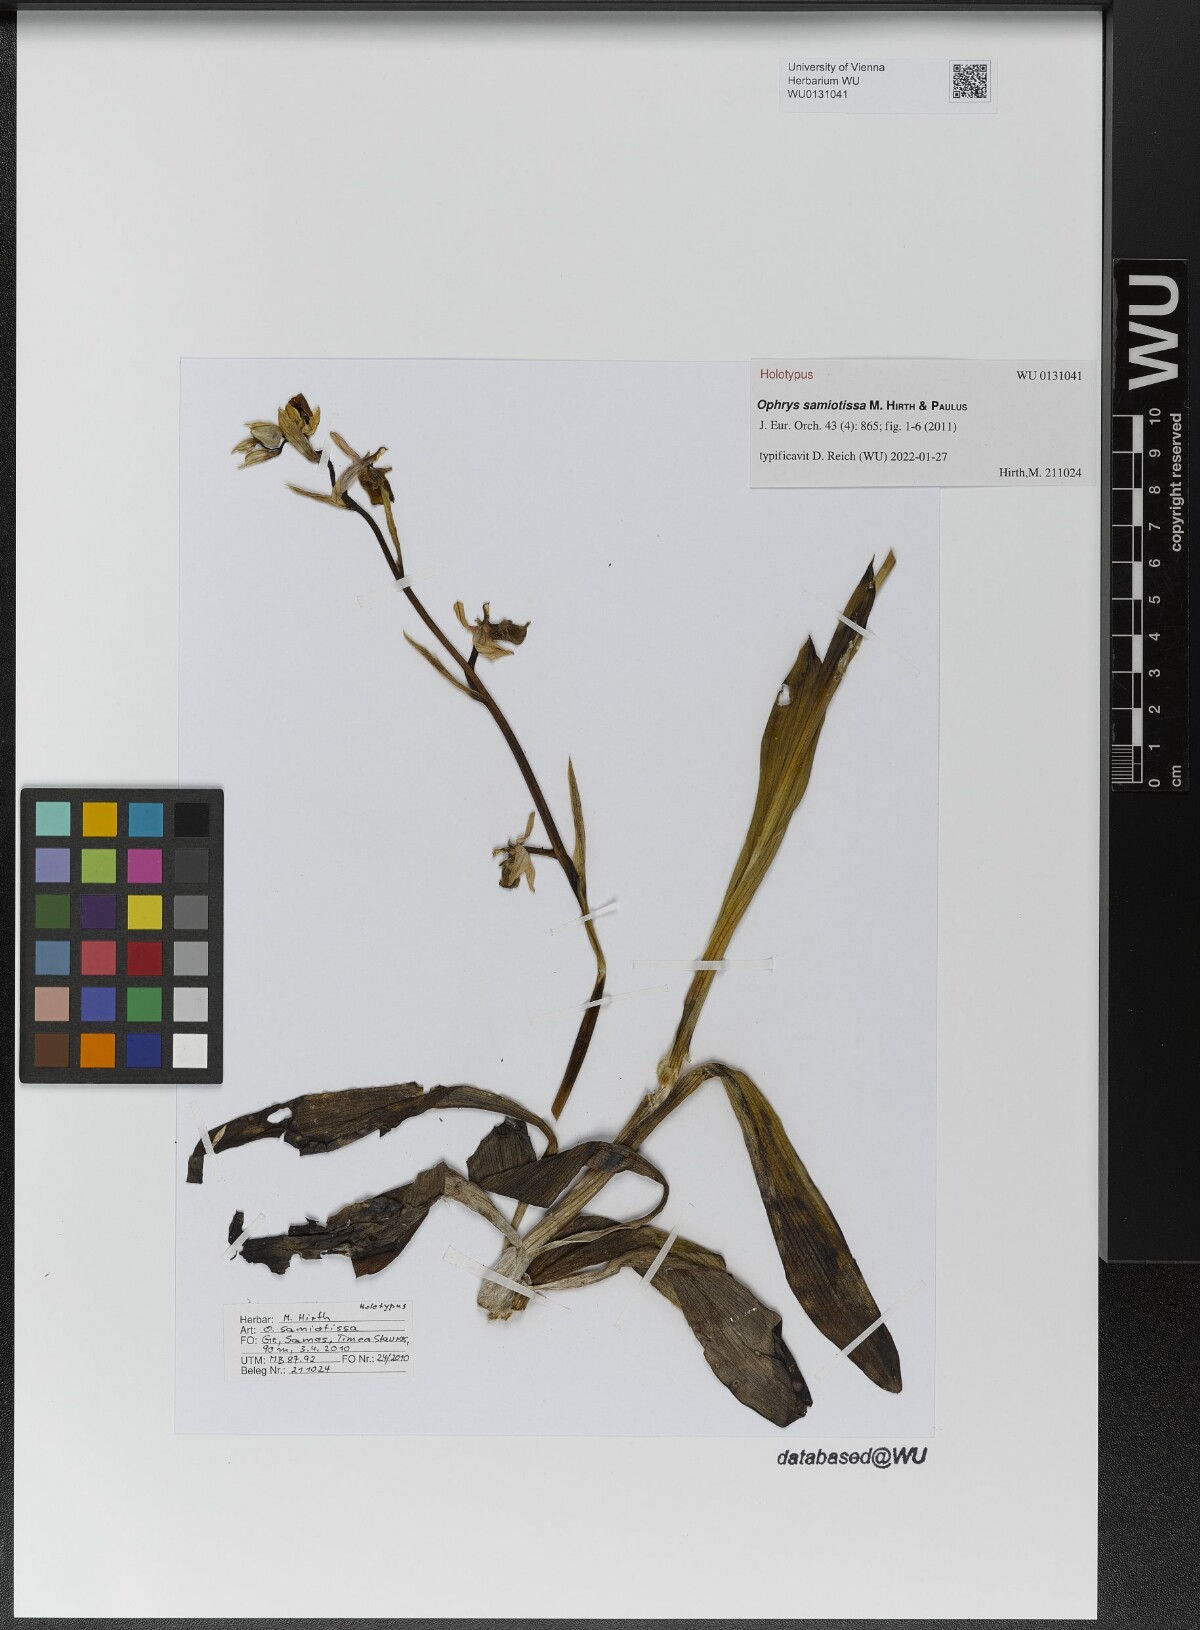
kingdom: Plantae
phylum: Tracheophyta
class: Liliopsida
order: Asparagales
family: Orchidaceae
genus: Ophrys
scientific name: Ophrys vicina
